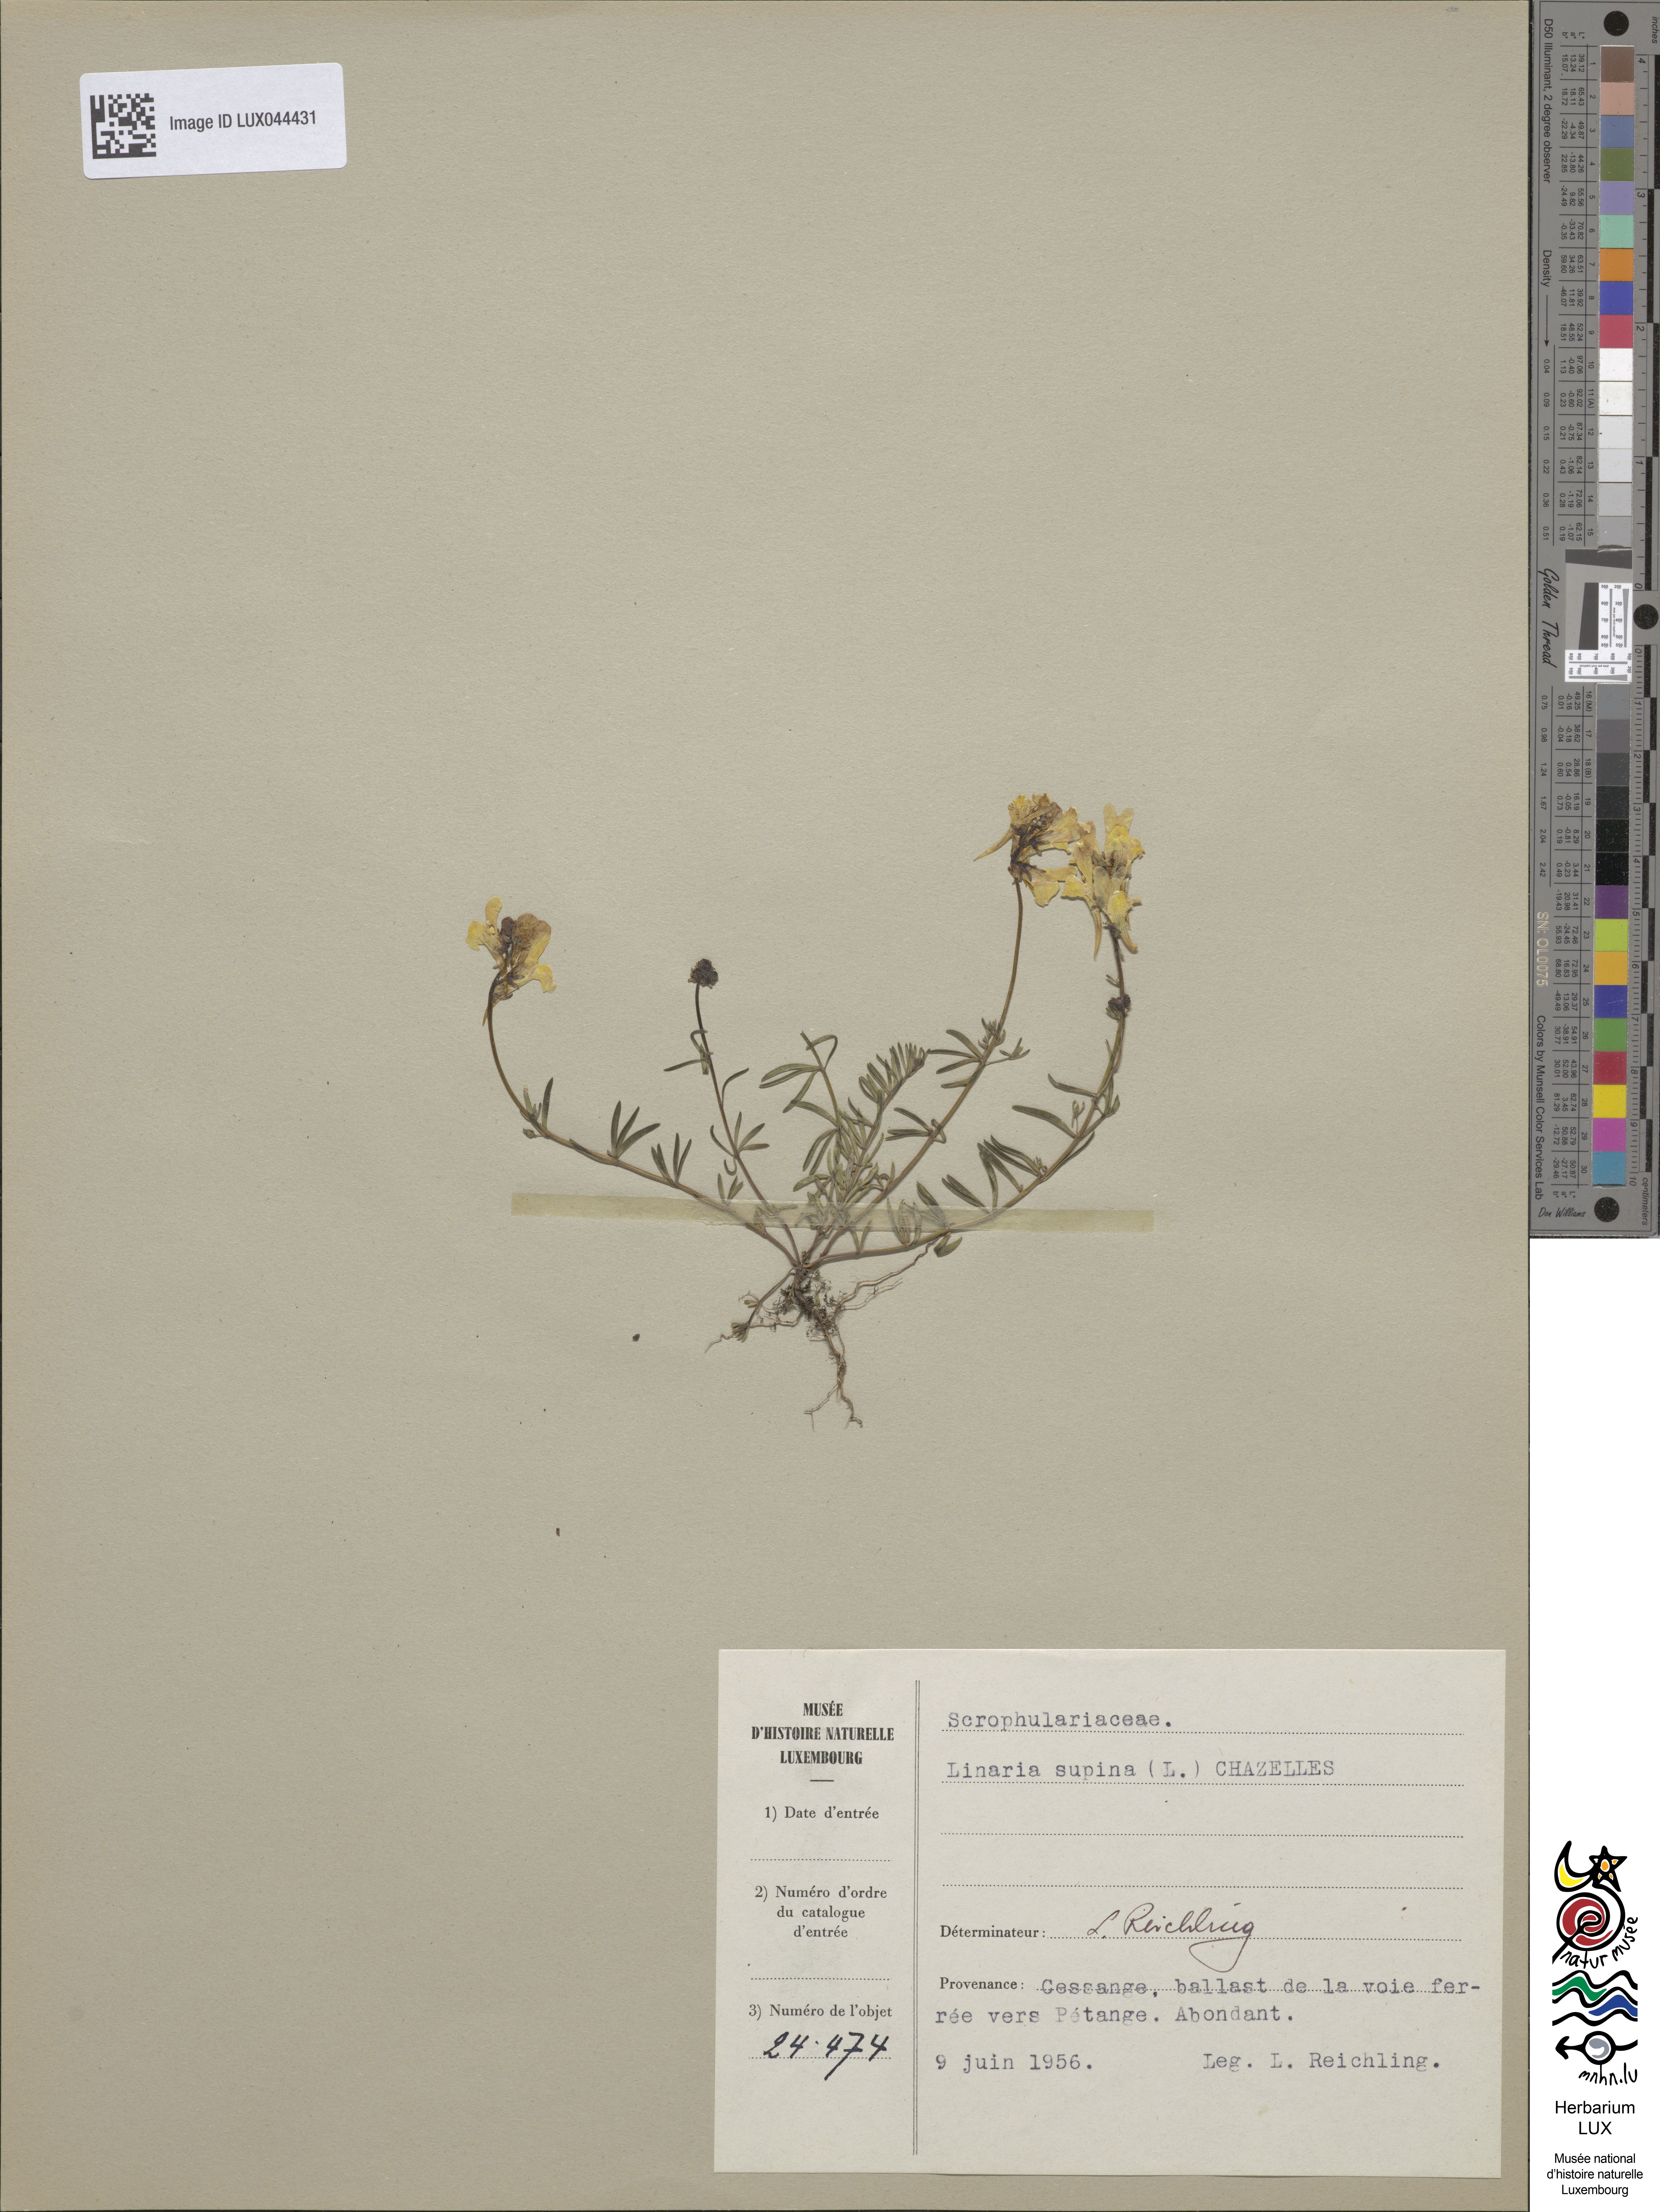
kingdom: Plantae
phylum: Tracheophyta
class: Magnoliopsida
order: Lamiales
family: Plantaginaceae
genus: Linaria
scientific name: Linaria supina
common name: Prostrate toadflax
